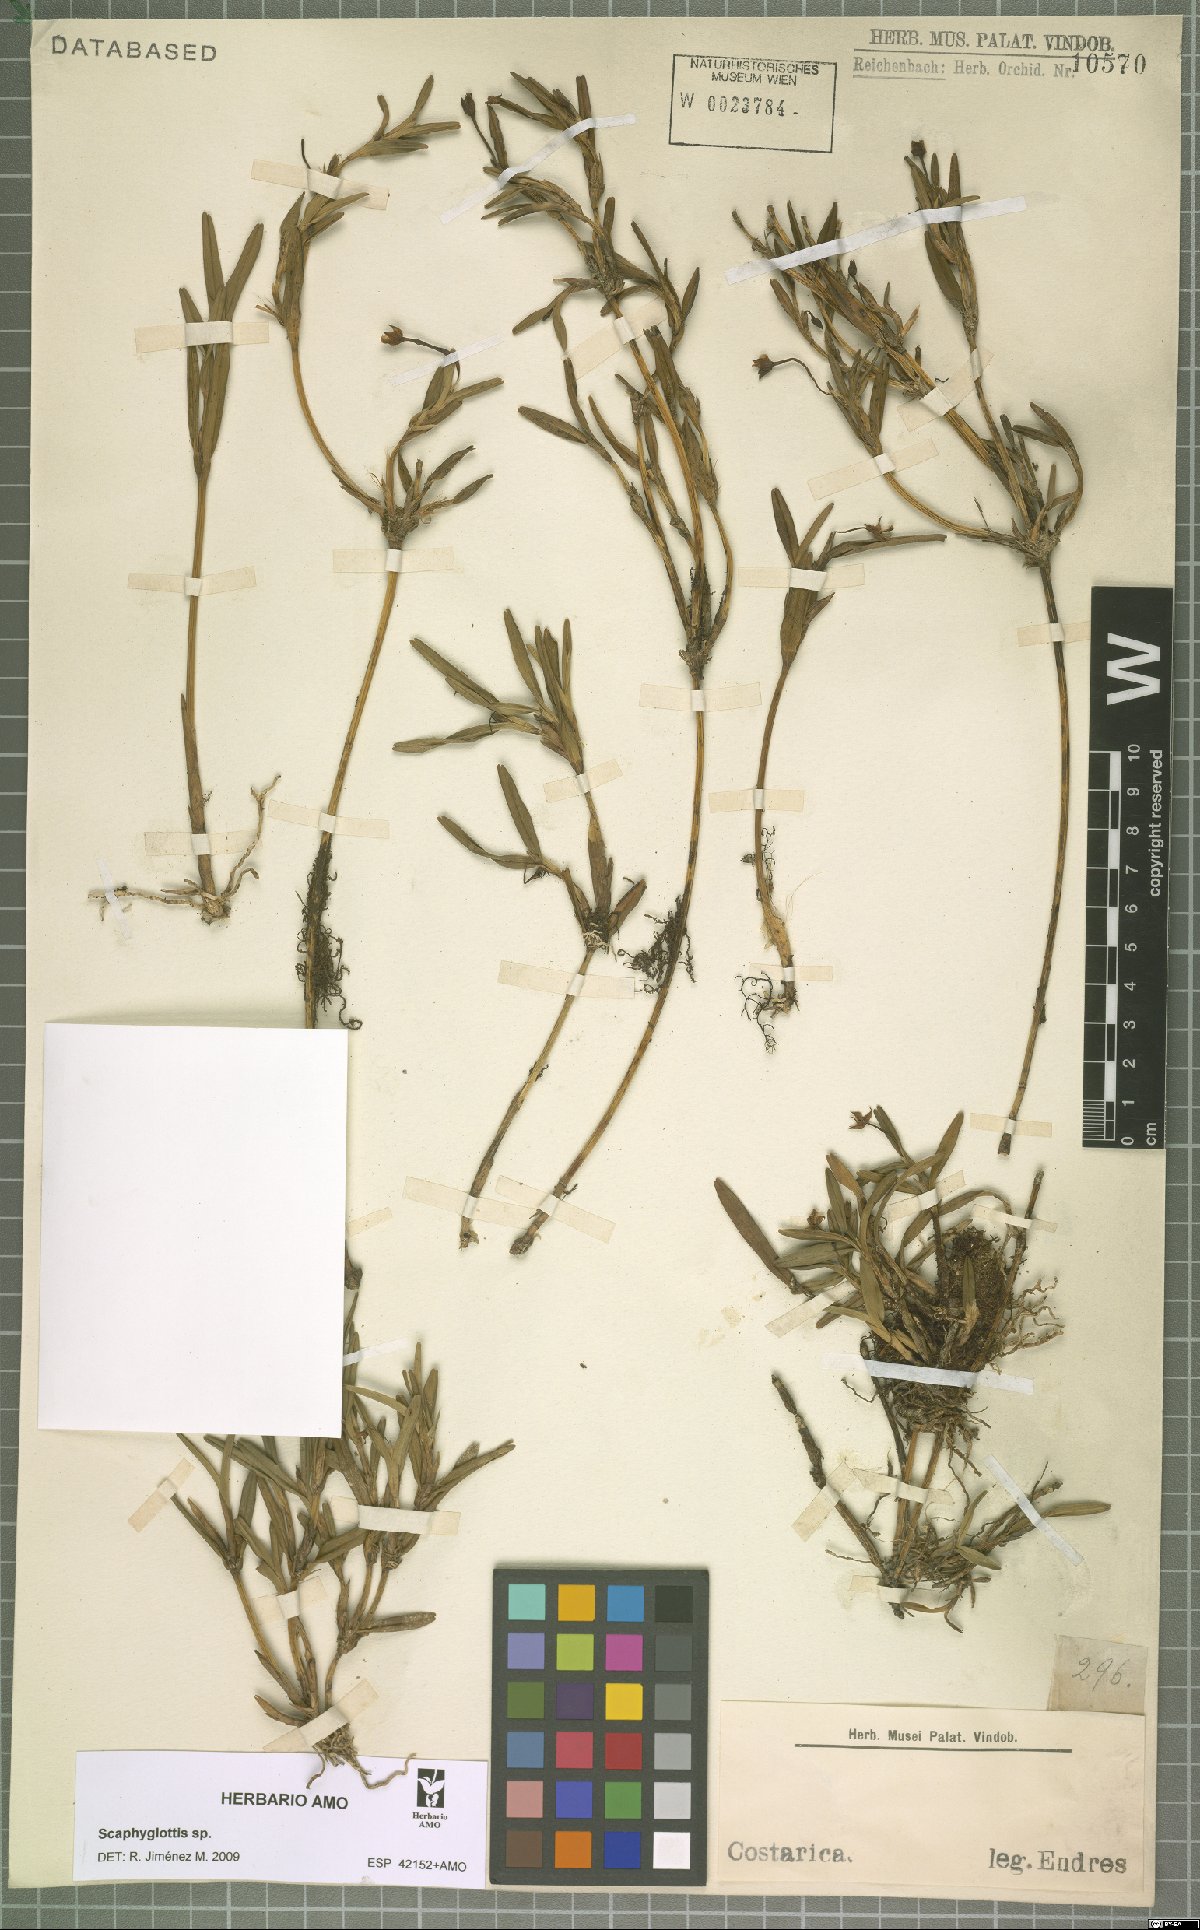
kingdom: Plantae
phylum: Tracheophyta
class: Liliopsida
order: Asparagales
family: Orchidaceae
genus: Scaphyglottis
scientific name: Scaphyglottis
